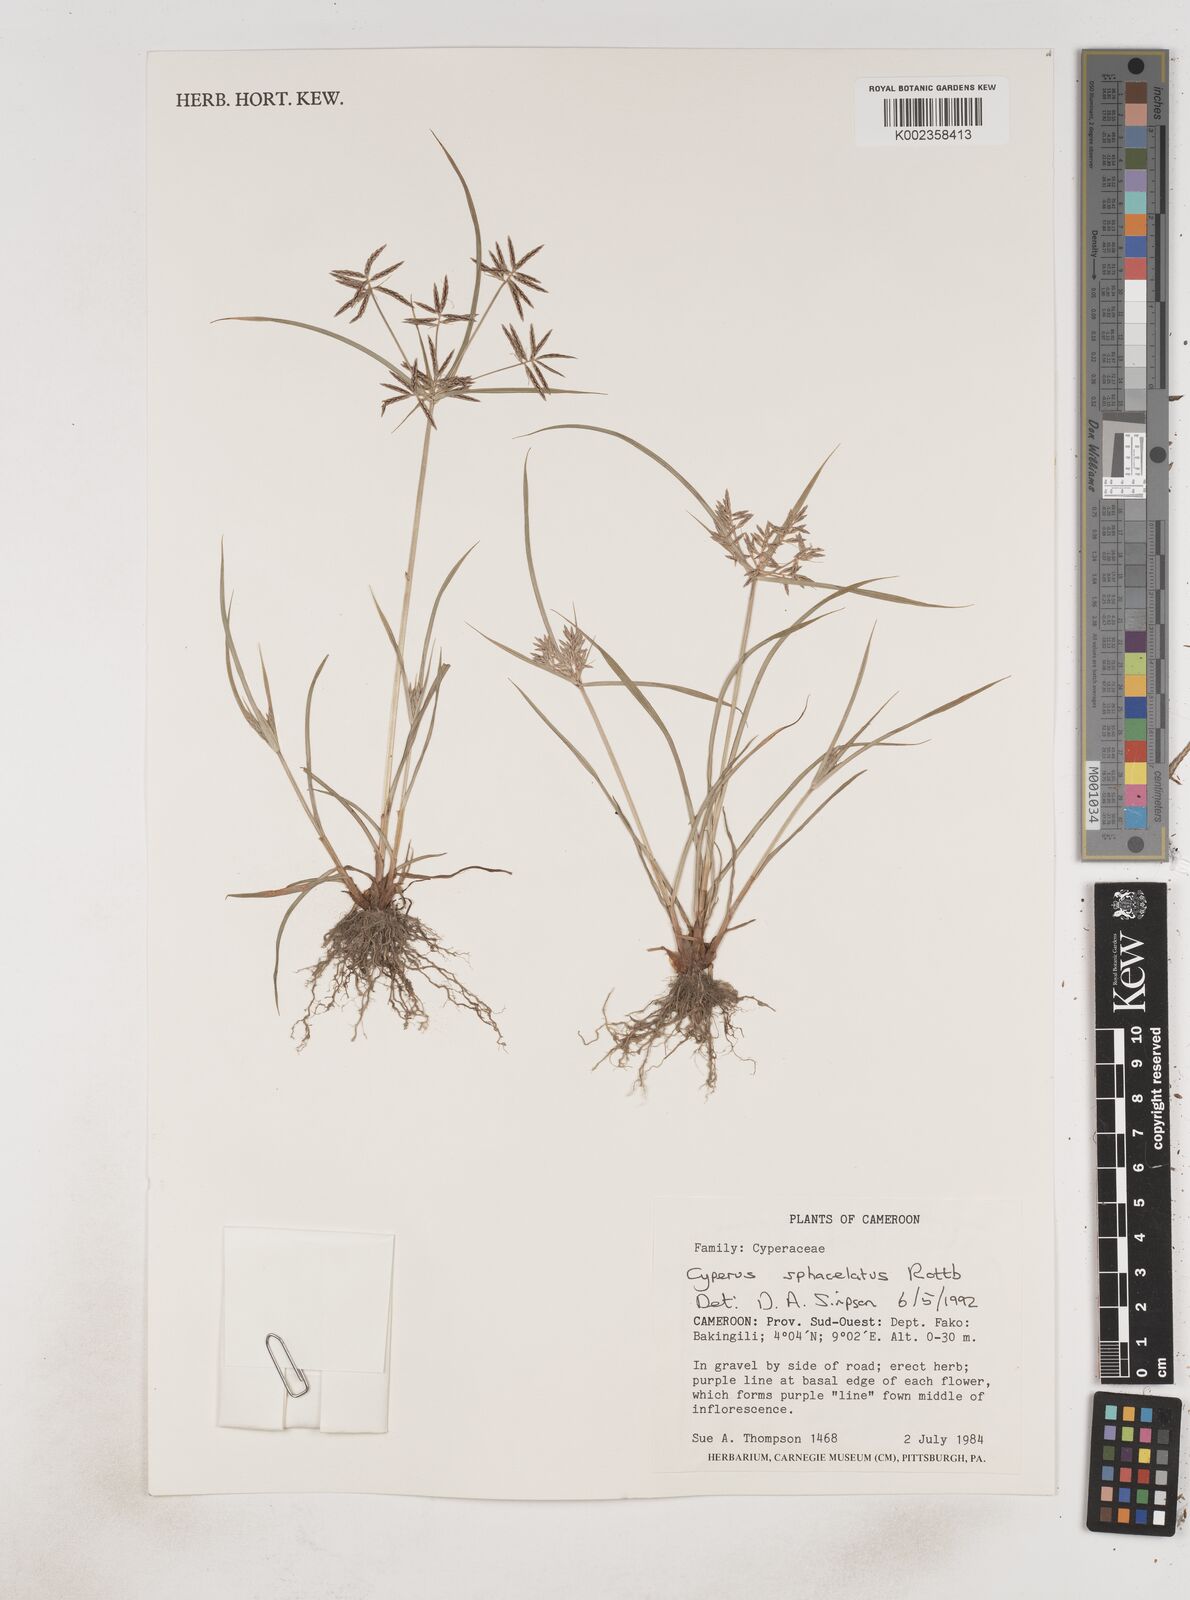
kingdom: Plantae
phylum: Tracheophyta
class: Liliopsida
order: Poales
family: Cyperaceae
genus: Cyperus
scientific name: Cyperus sphacelatus
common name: Roadside flatsedge
